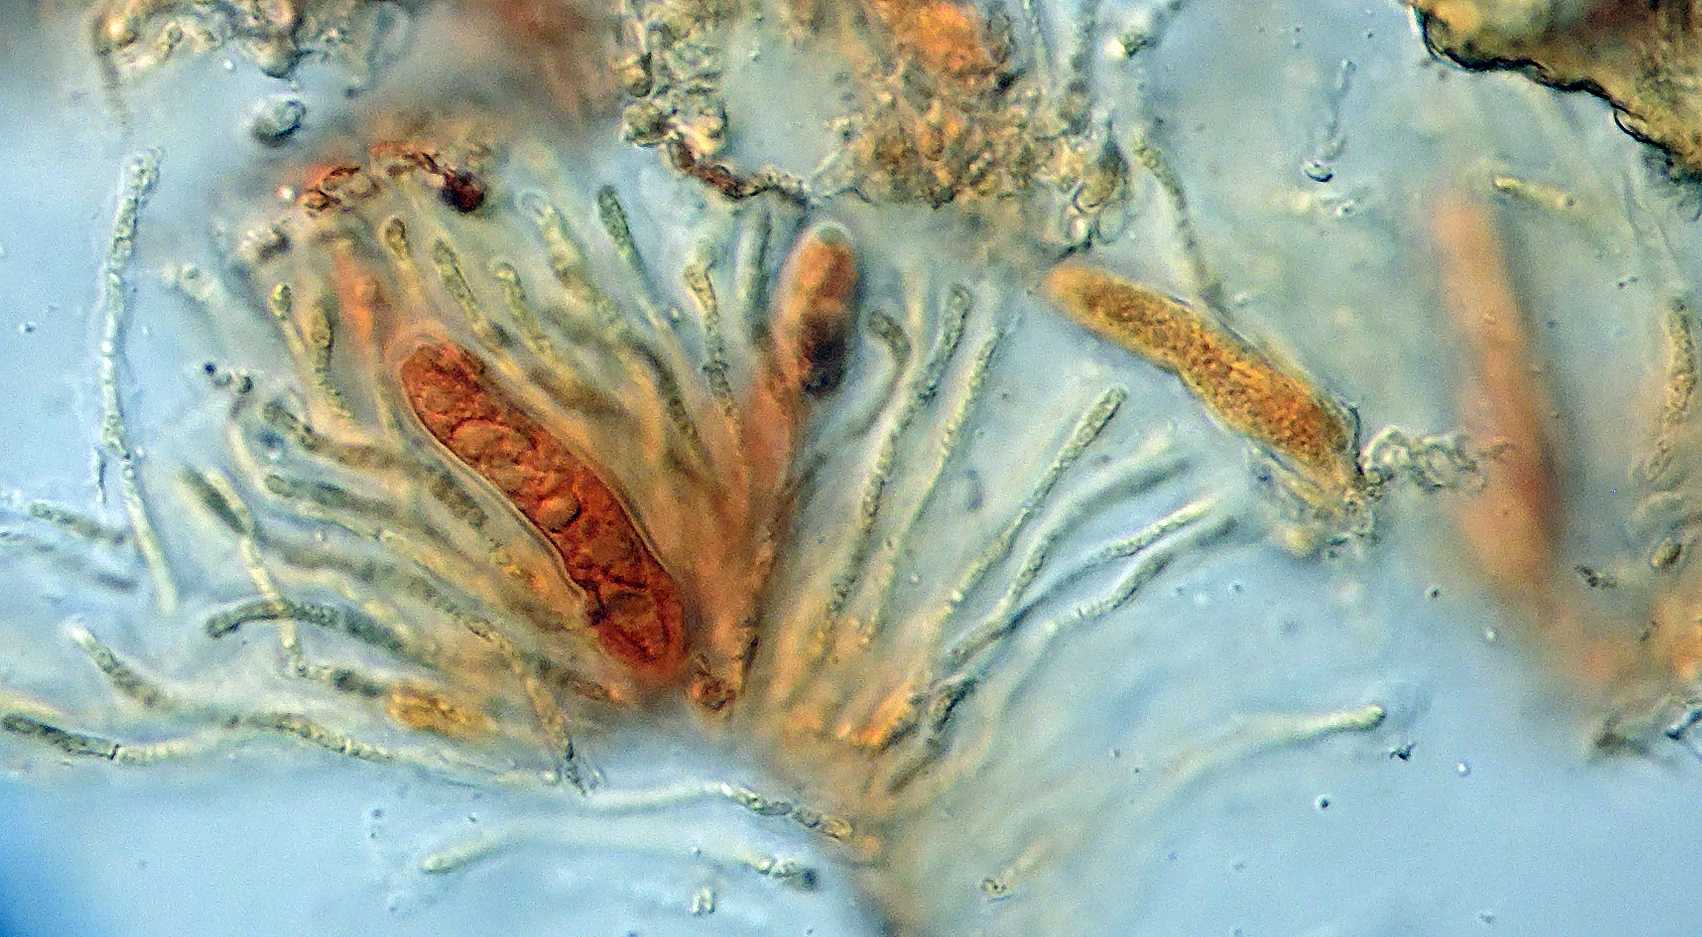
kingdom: Fungi
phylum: Ascomycota
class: Leotiomycetes
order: Helotiales
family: Calloriaceae
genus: Ploettnera
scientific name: Ploettnera
